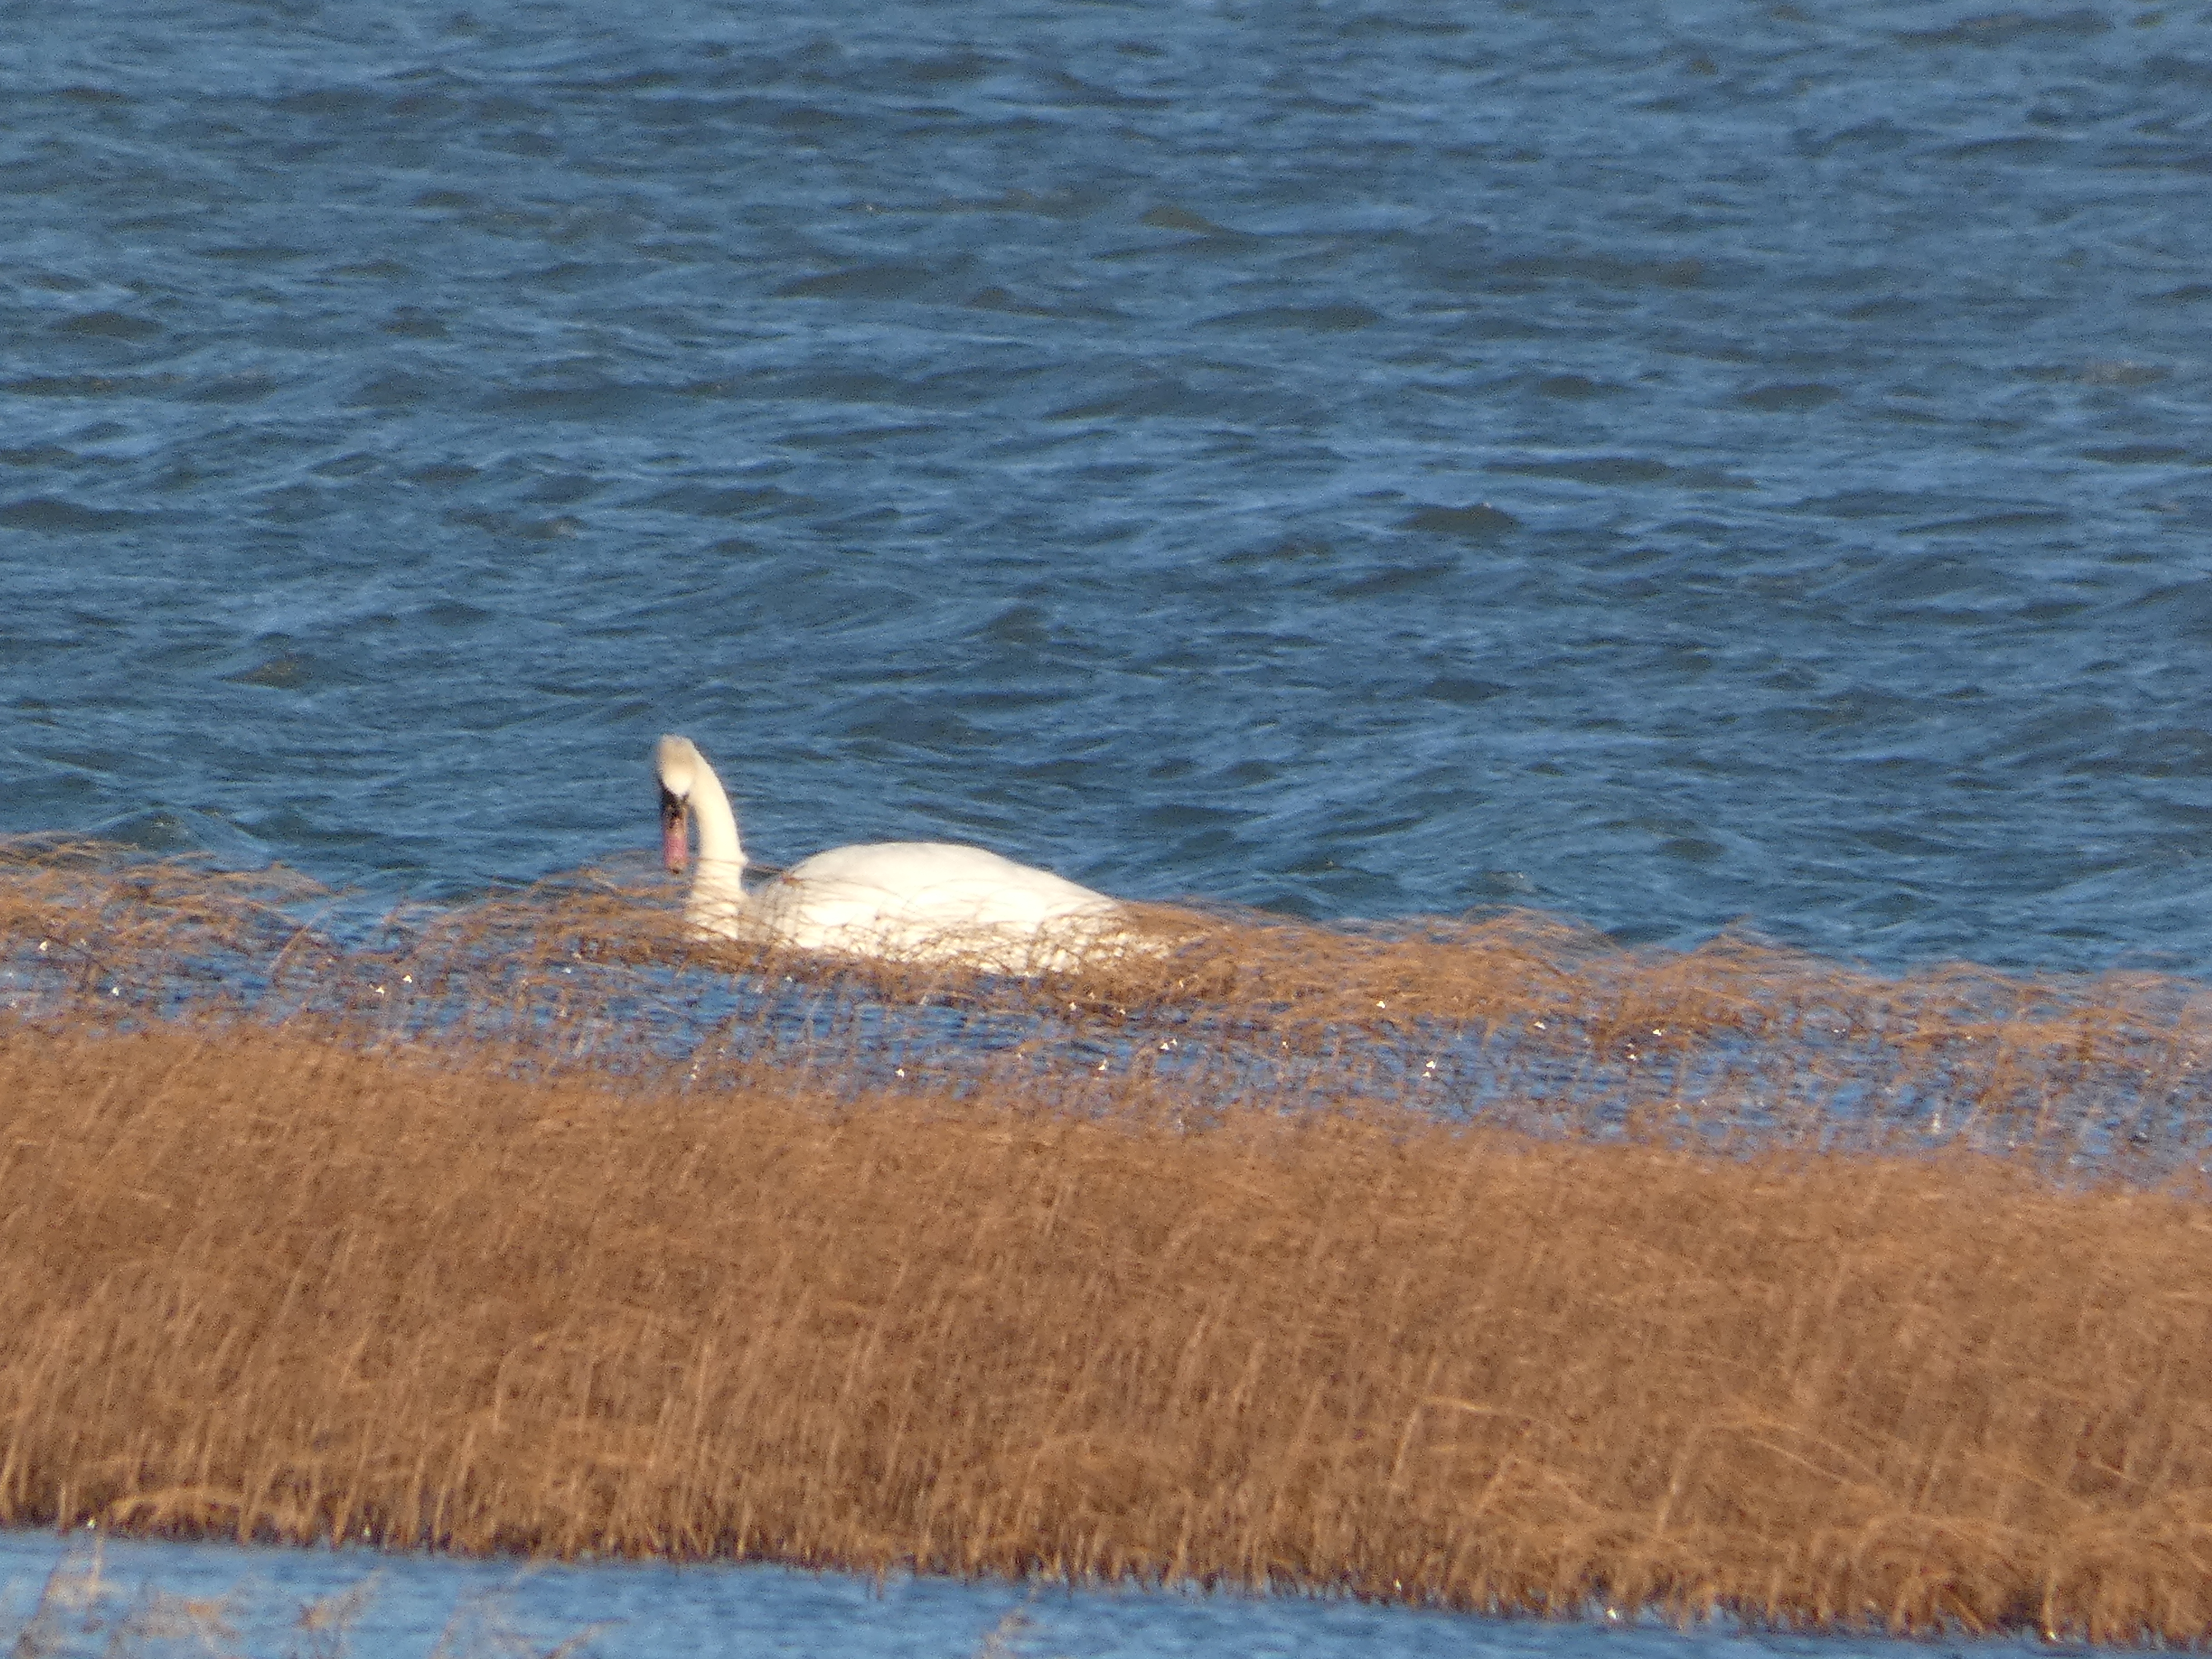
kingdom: Animalia
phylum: Chordata
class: Aves
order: Anseriformes
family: Anatidae
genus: Cygnus
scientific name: Cygnus olor
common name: Knopsvane
